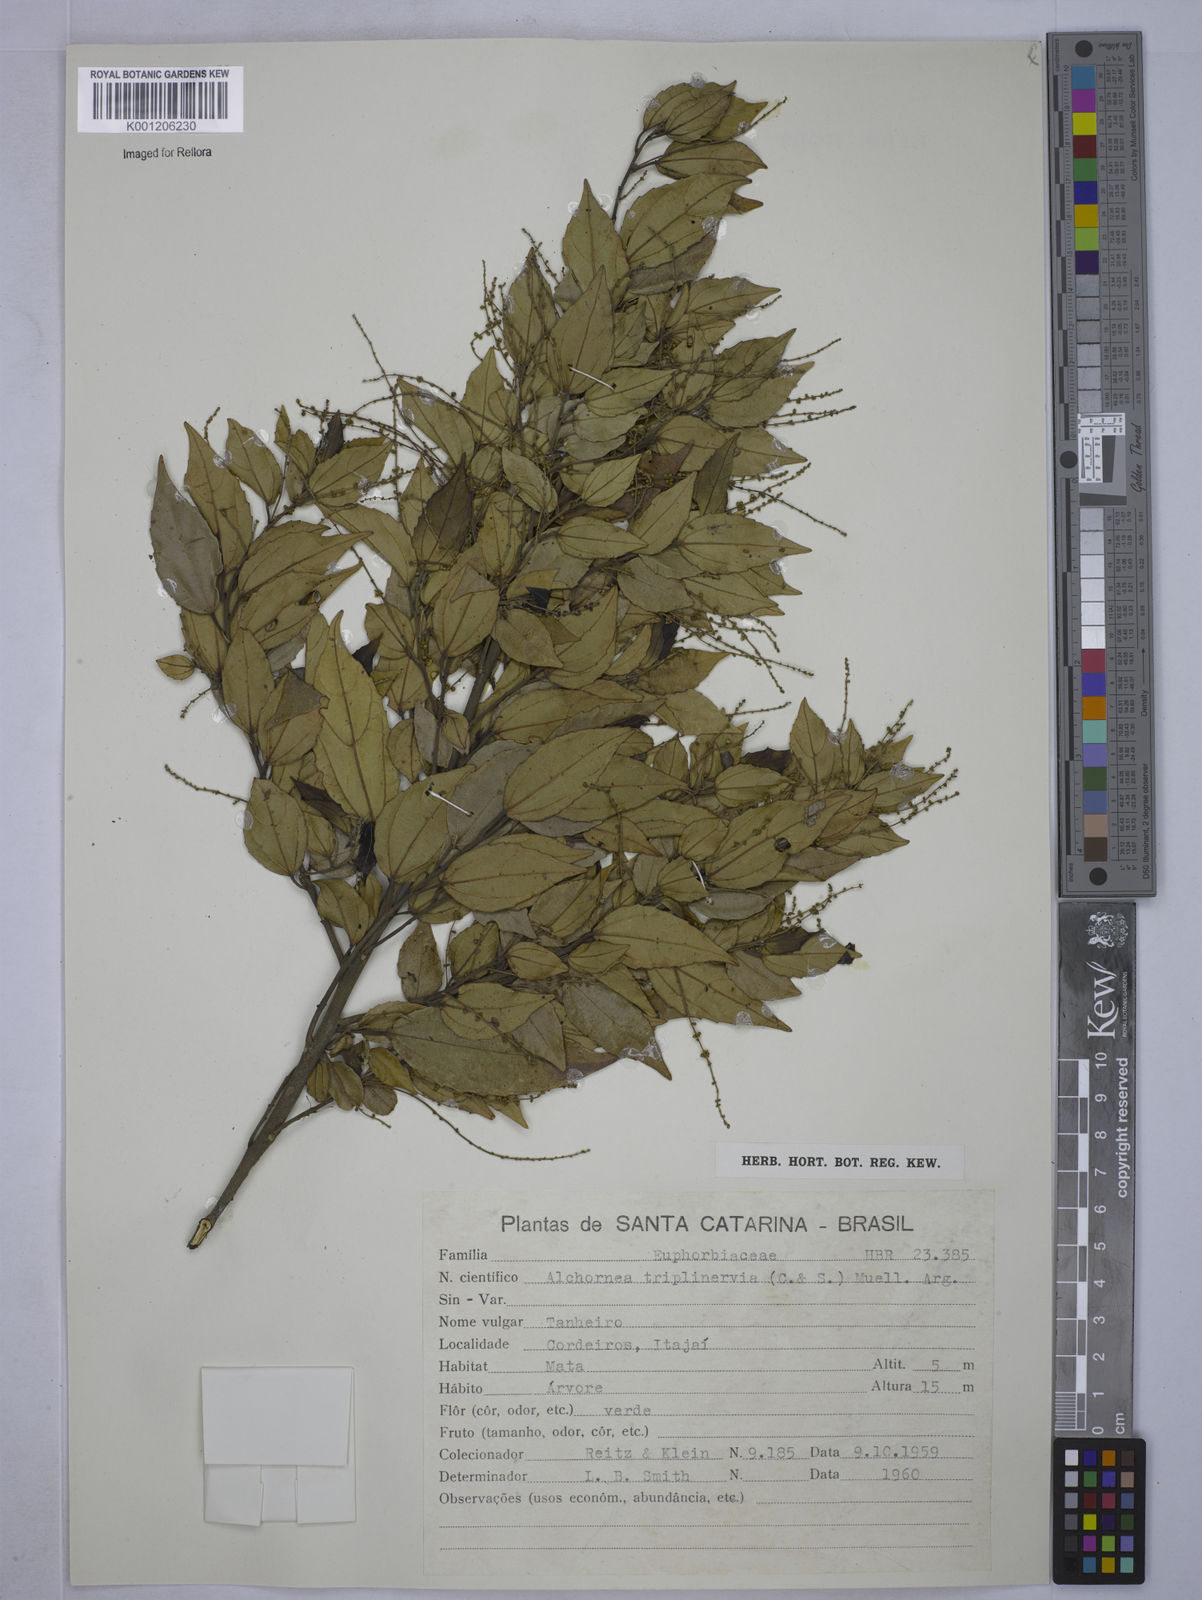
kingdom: Plantae
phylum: Tracheophyta
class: Magnoliopsida
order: Malpighiales
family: Euphorbiaceae
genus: Alchornea
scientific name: Alchornea
